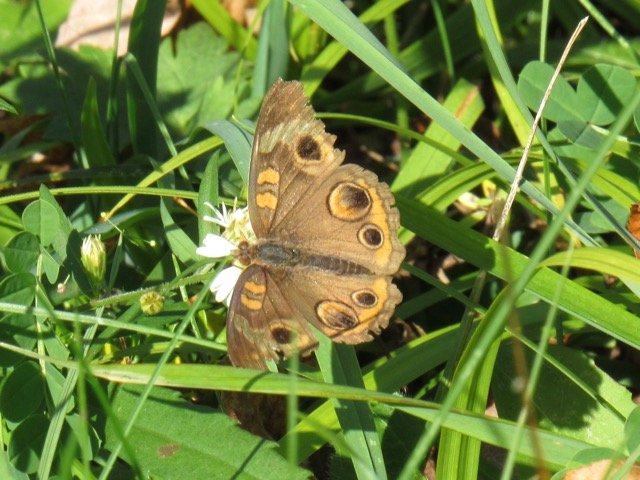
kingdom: Animalia
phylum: Arthropoda
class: Insecta
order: Lepidoptera
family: Nymphalidae
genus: Junonia
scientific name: Junonia coenia
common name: Common Buckeye
